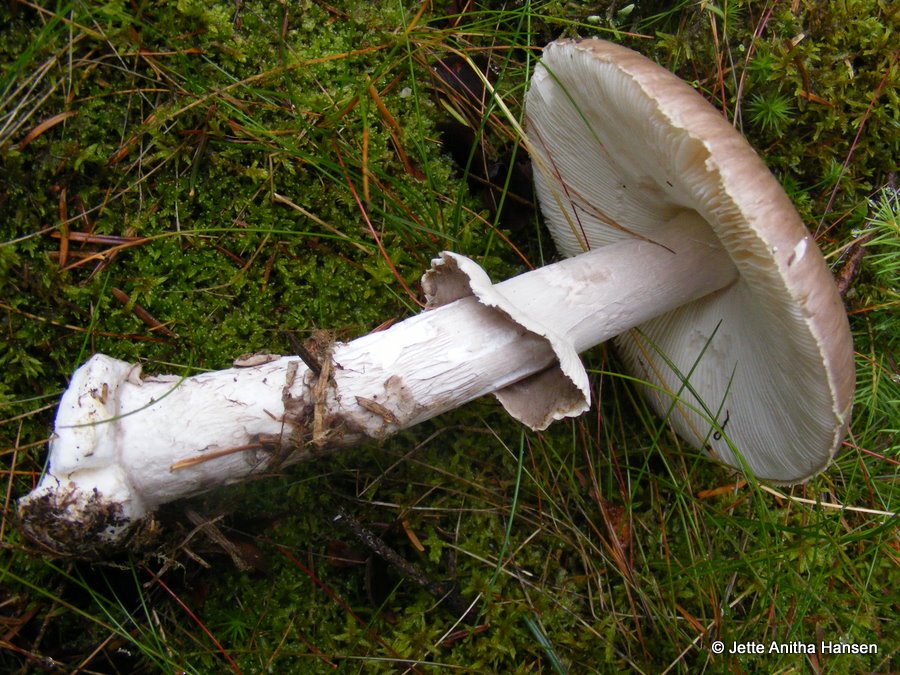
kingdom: Fungi
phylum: Basidiomycota
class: Agaricomycetes
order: Agaricales
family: Amanitaceae
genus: Amanita
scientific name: Amanita porphyria
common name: porfyr-fluesvamp
